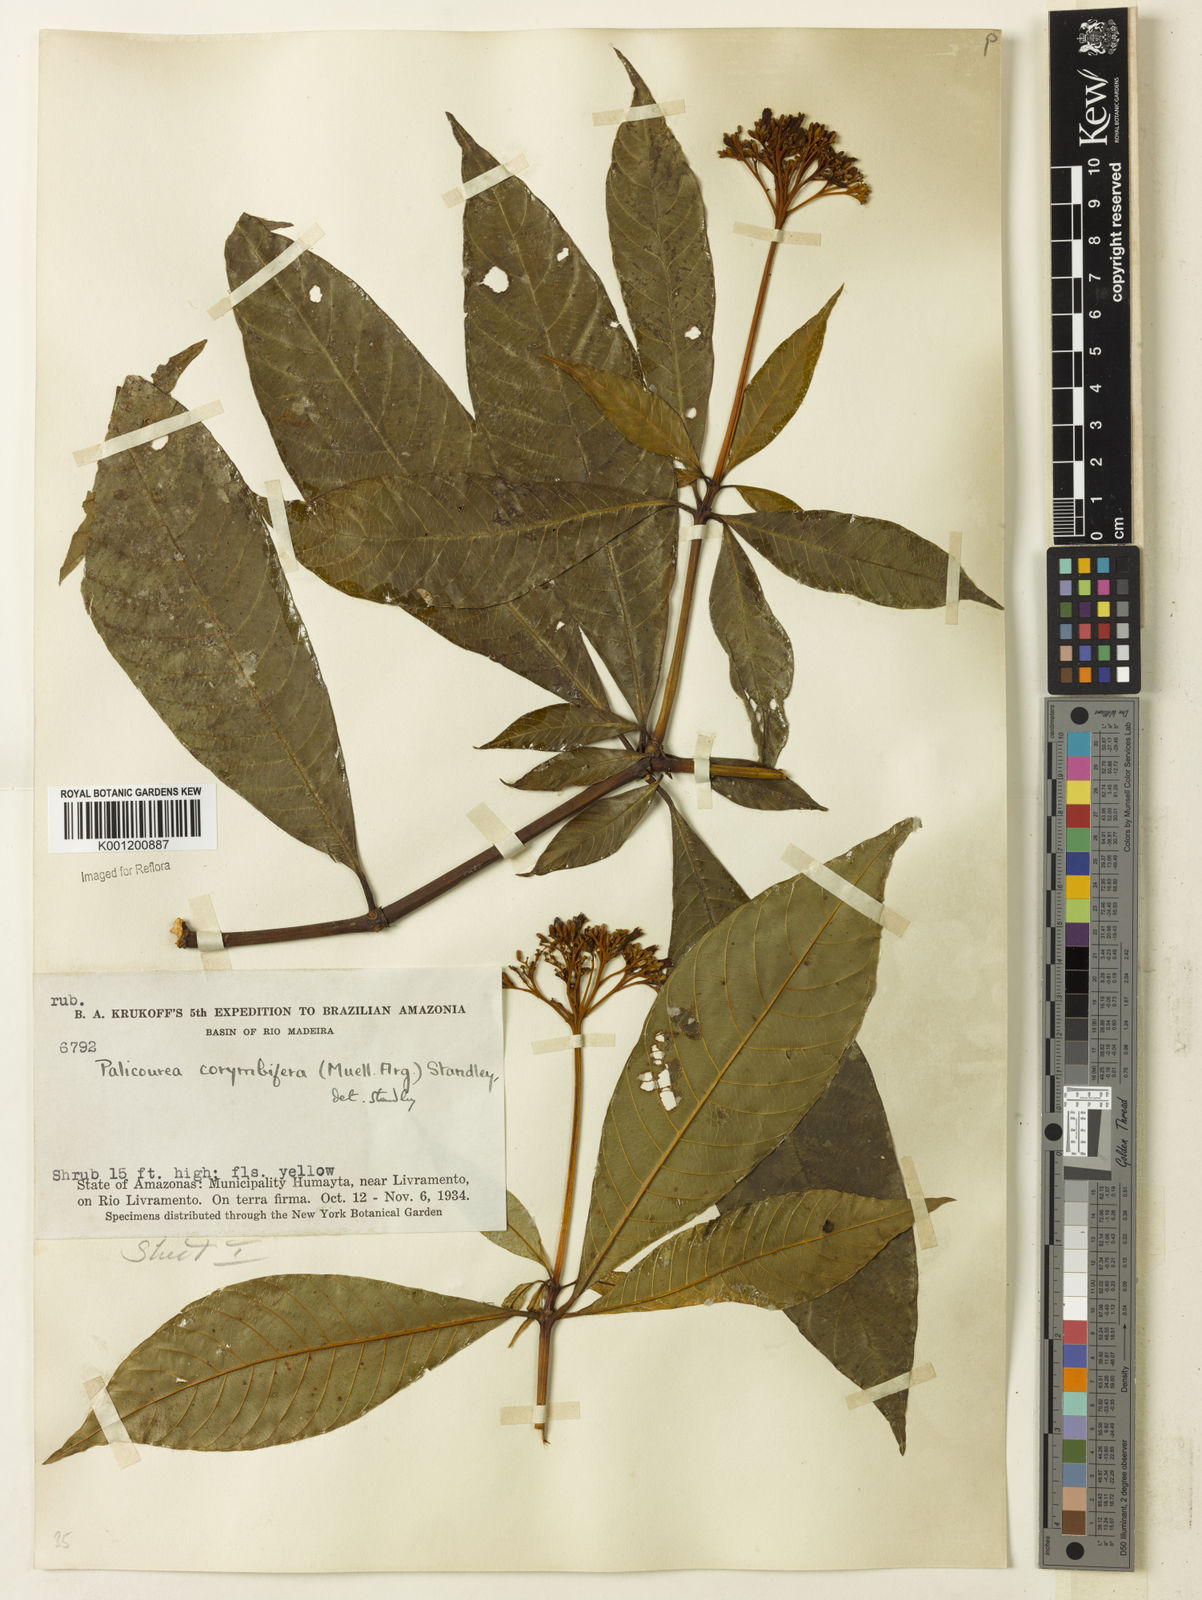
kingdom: Plantae
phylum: Tracheophyta
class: Magnoliopsida
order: Gentianales
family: Rubiaceae
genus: Palicourea
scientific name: Palicourea
